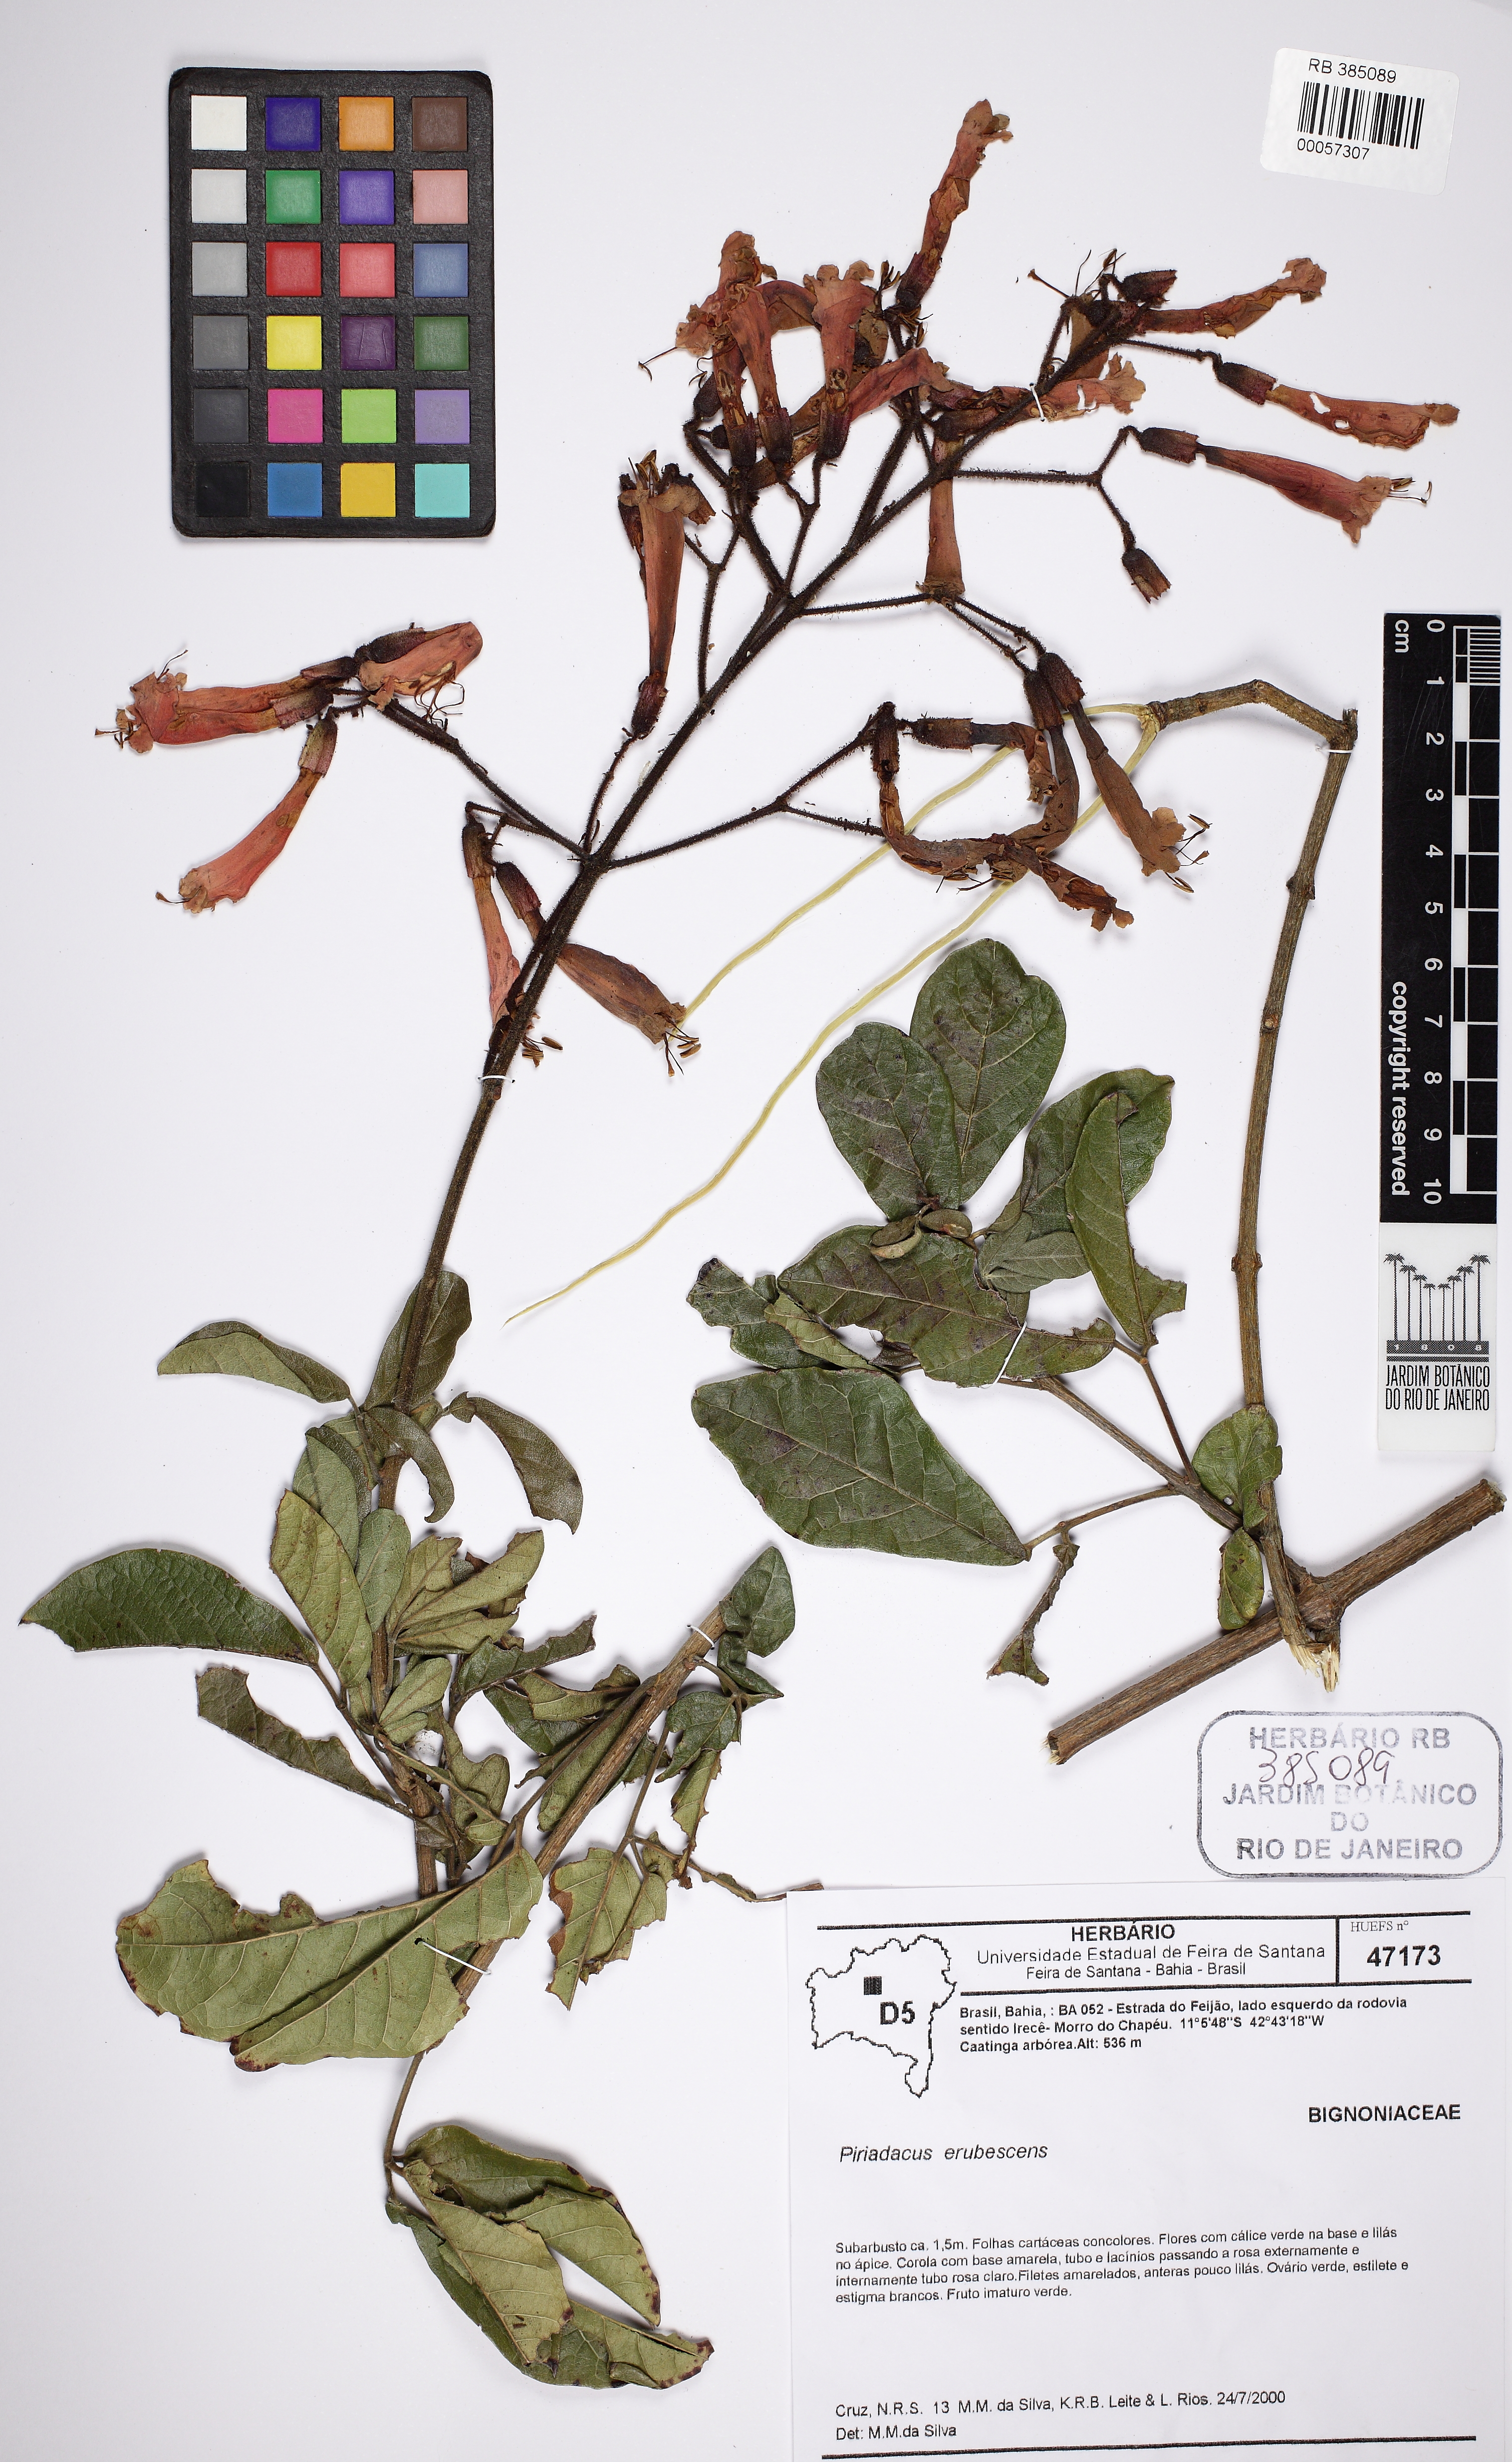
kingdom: Plantae
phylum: Tracheophyta
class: Magnoliopsida
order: Lamiales
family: Bignoniaceae
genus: Fridericia
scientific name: Fridericia erubescens
